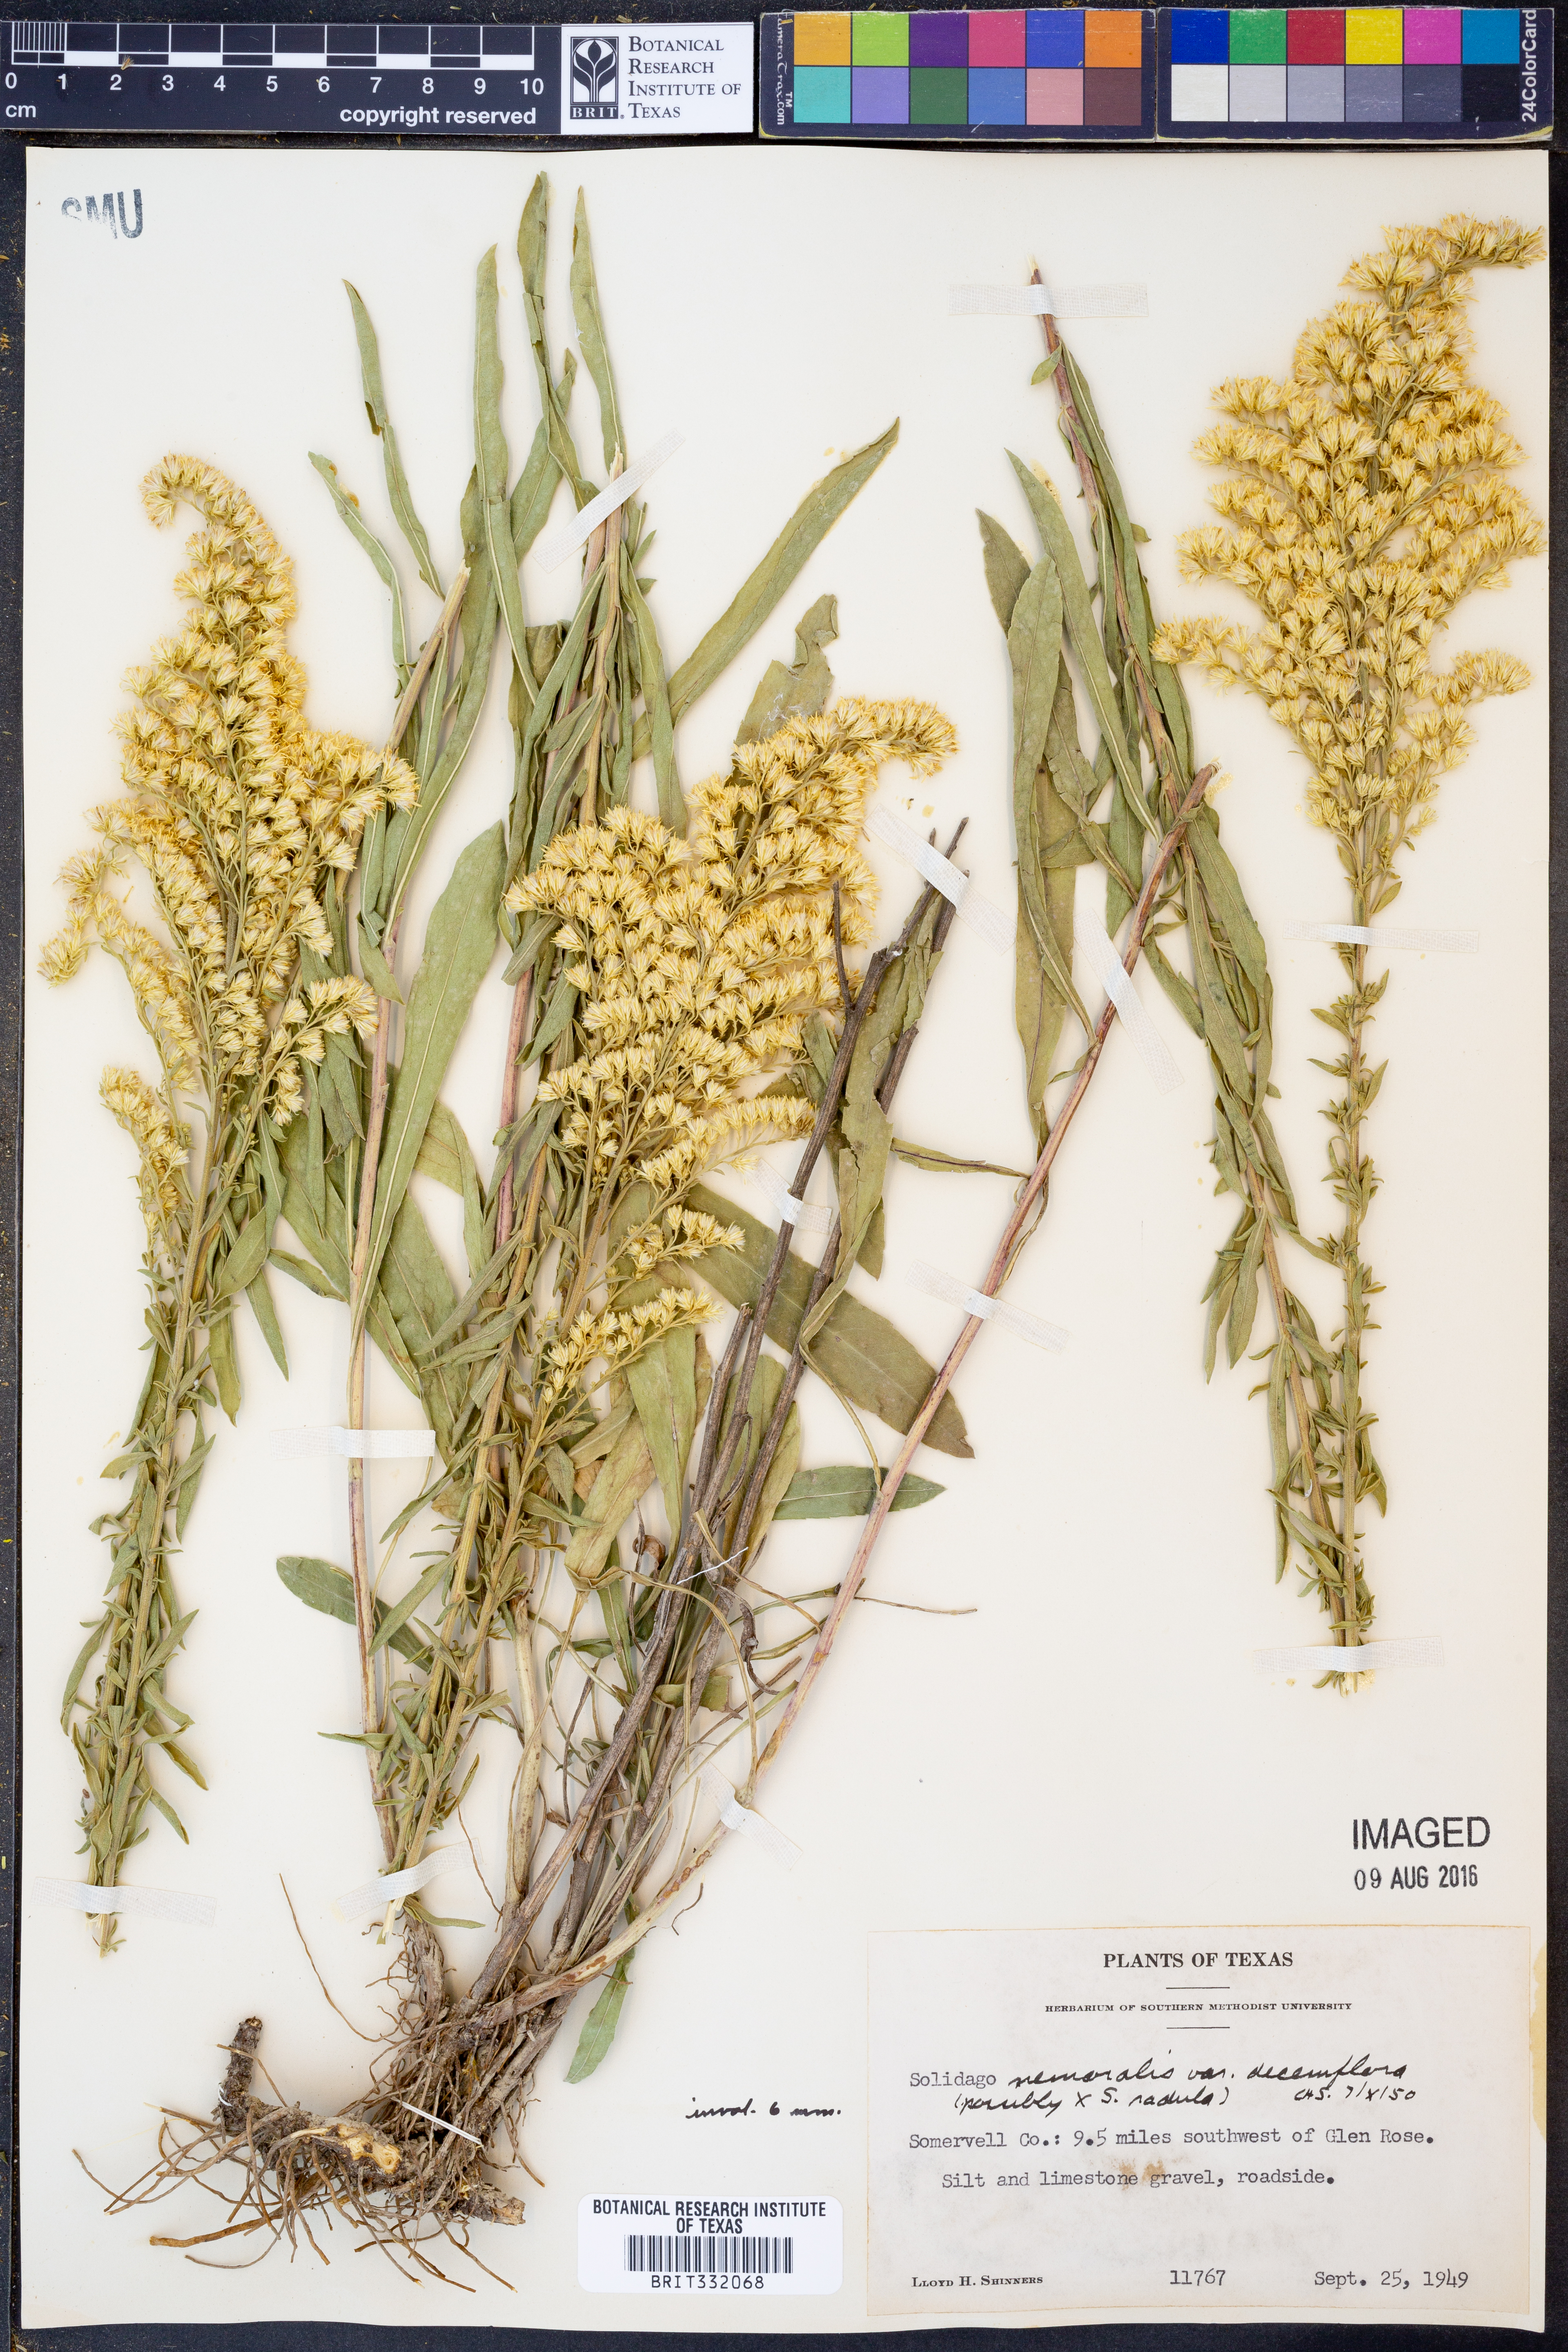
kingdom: Plantae
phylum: Tracheophyta
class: Magnoliopsida
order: Asterales
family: Asteraceae
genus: Solidago
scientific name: Solidago decemflora
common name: Prairie grey-stemmed goldenrod
